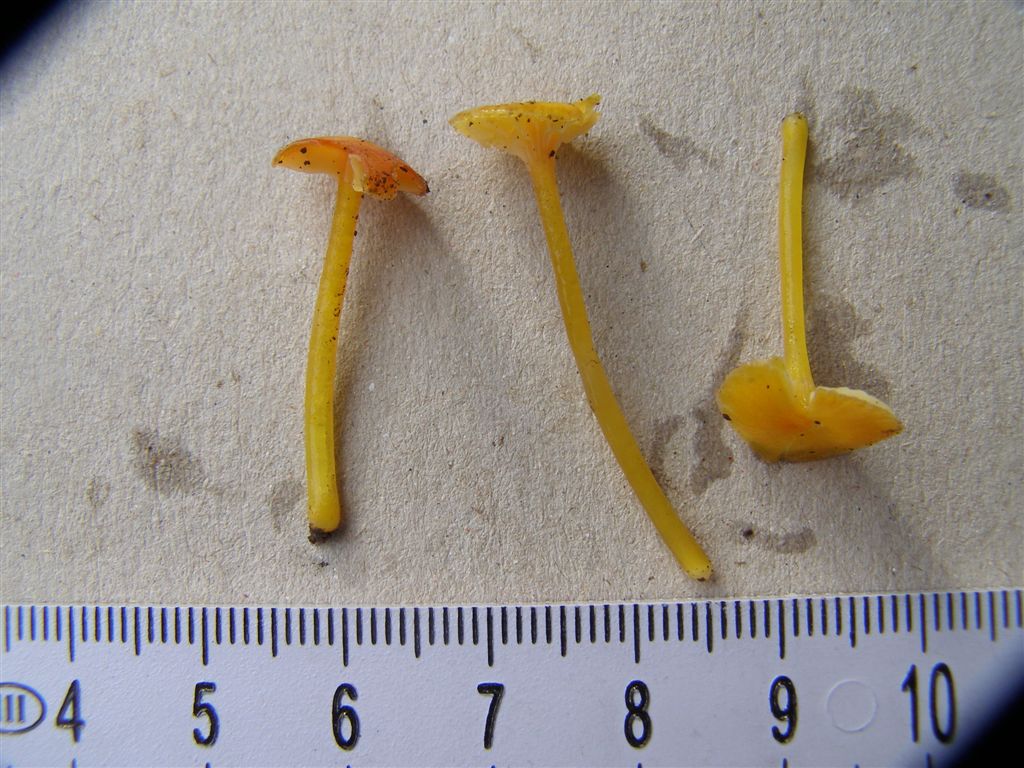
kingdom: Fungi
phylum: Basidiomycota
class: Agaricomycetes
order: Agaricales
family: Hygrophoraceae
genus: Hygrocybe
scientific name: Hygrocybe glutinipes
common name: slimstokket vokshat
